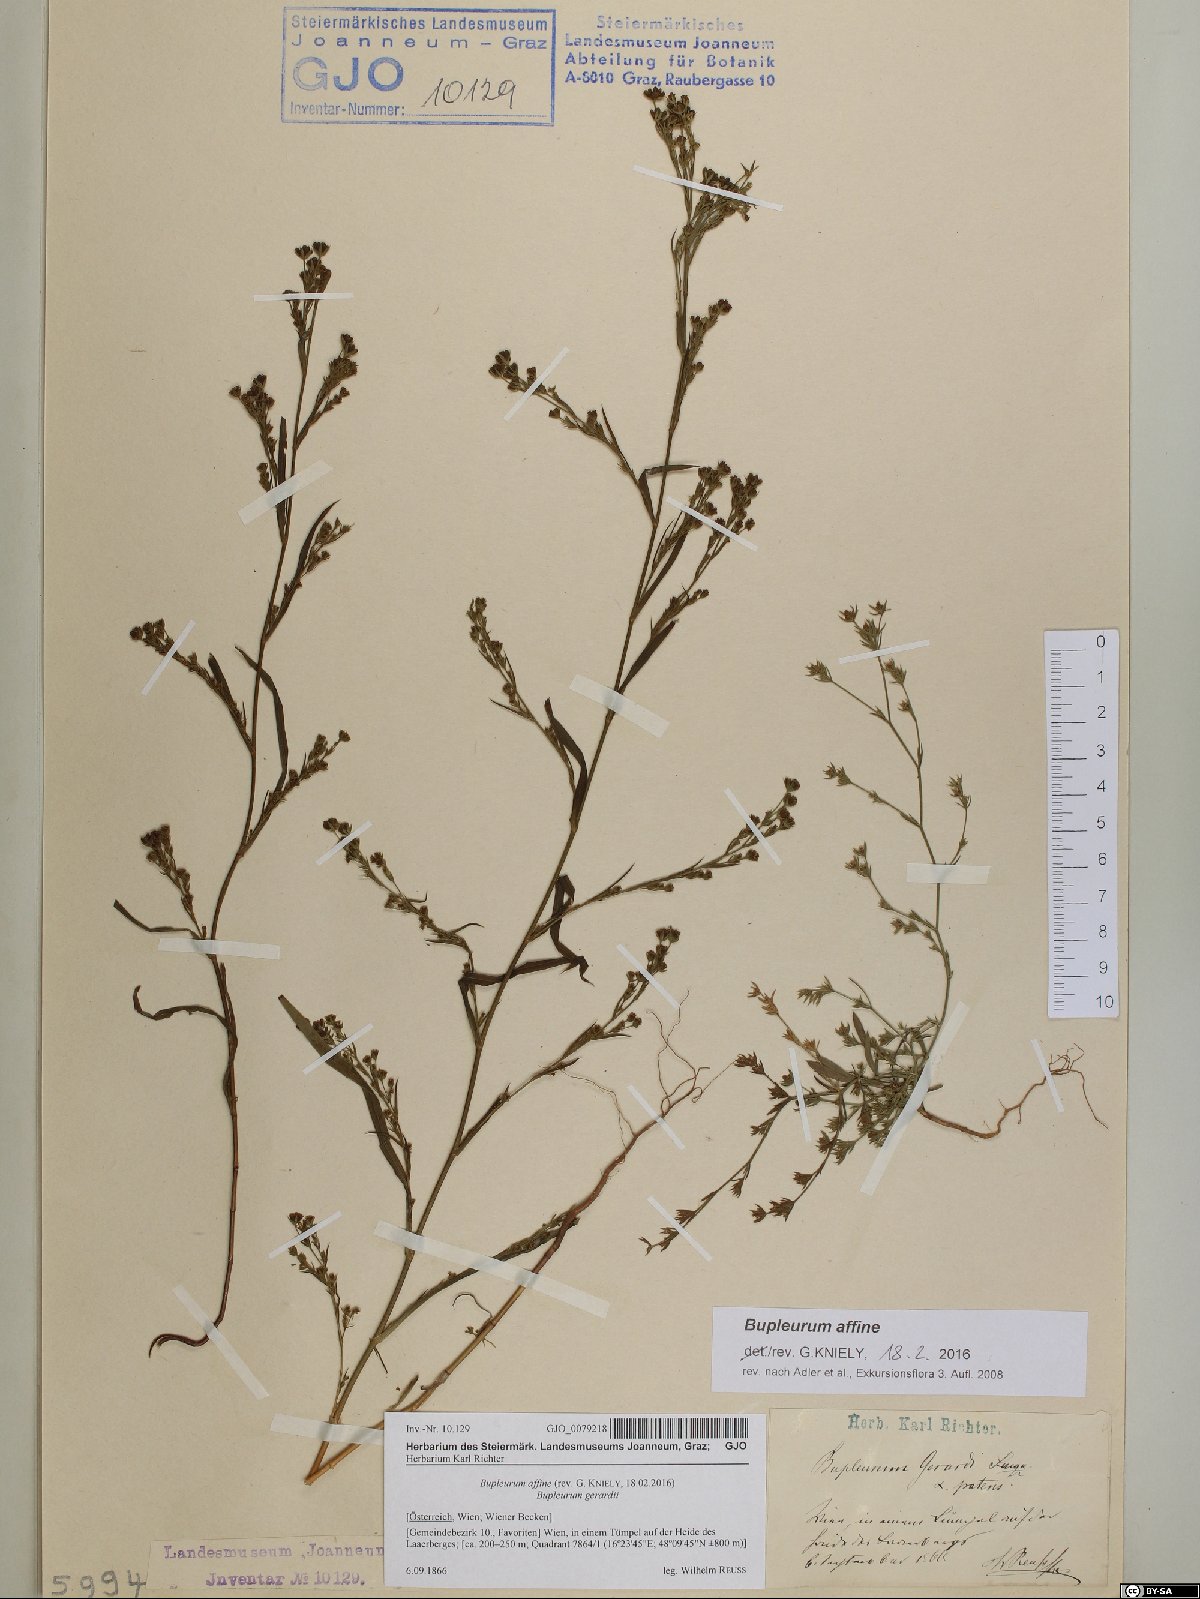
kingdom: Plantae
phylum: Tracheophyta
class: Magnoliopsida
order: Apiales
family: Apiaceae
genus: Bupleurum
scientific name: Bupleurum affine
